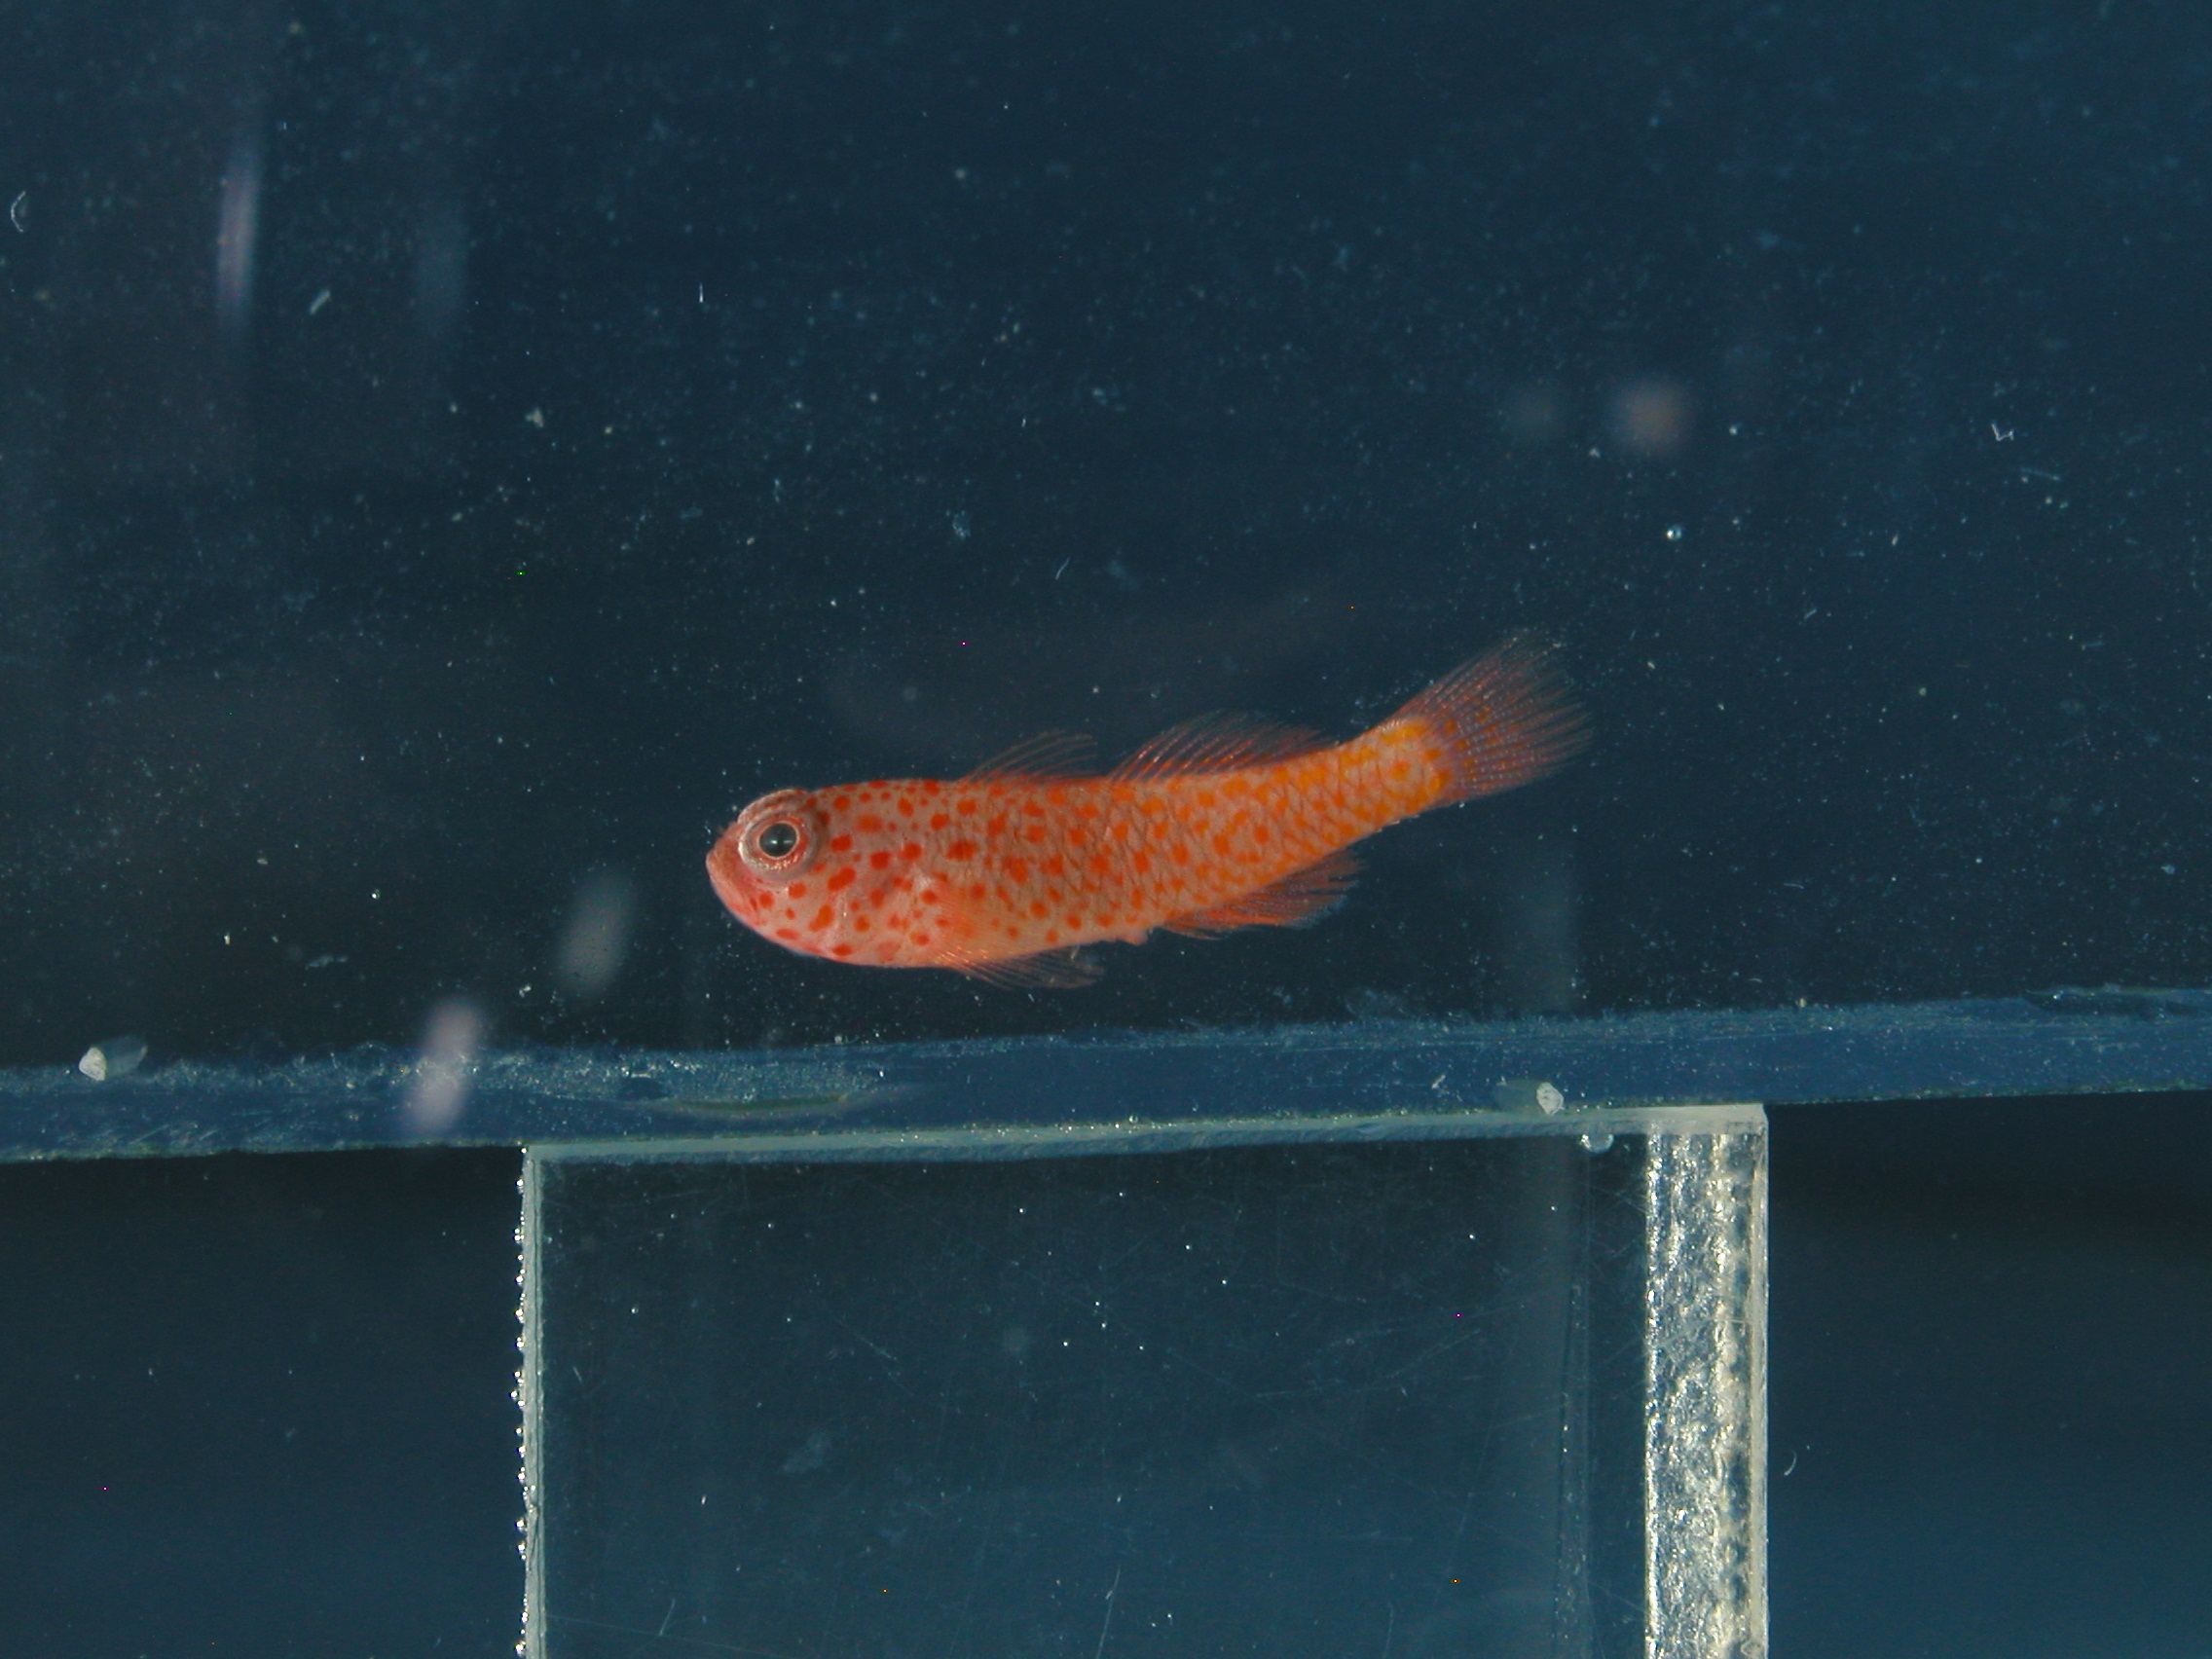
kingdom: Animalia
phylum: Chordata
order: Perciformes
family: Gobiidae
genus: Trimma
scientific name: Trimma flammeum
